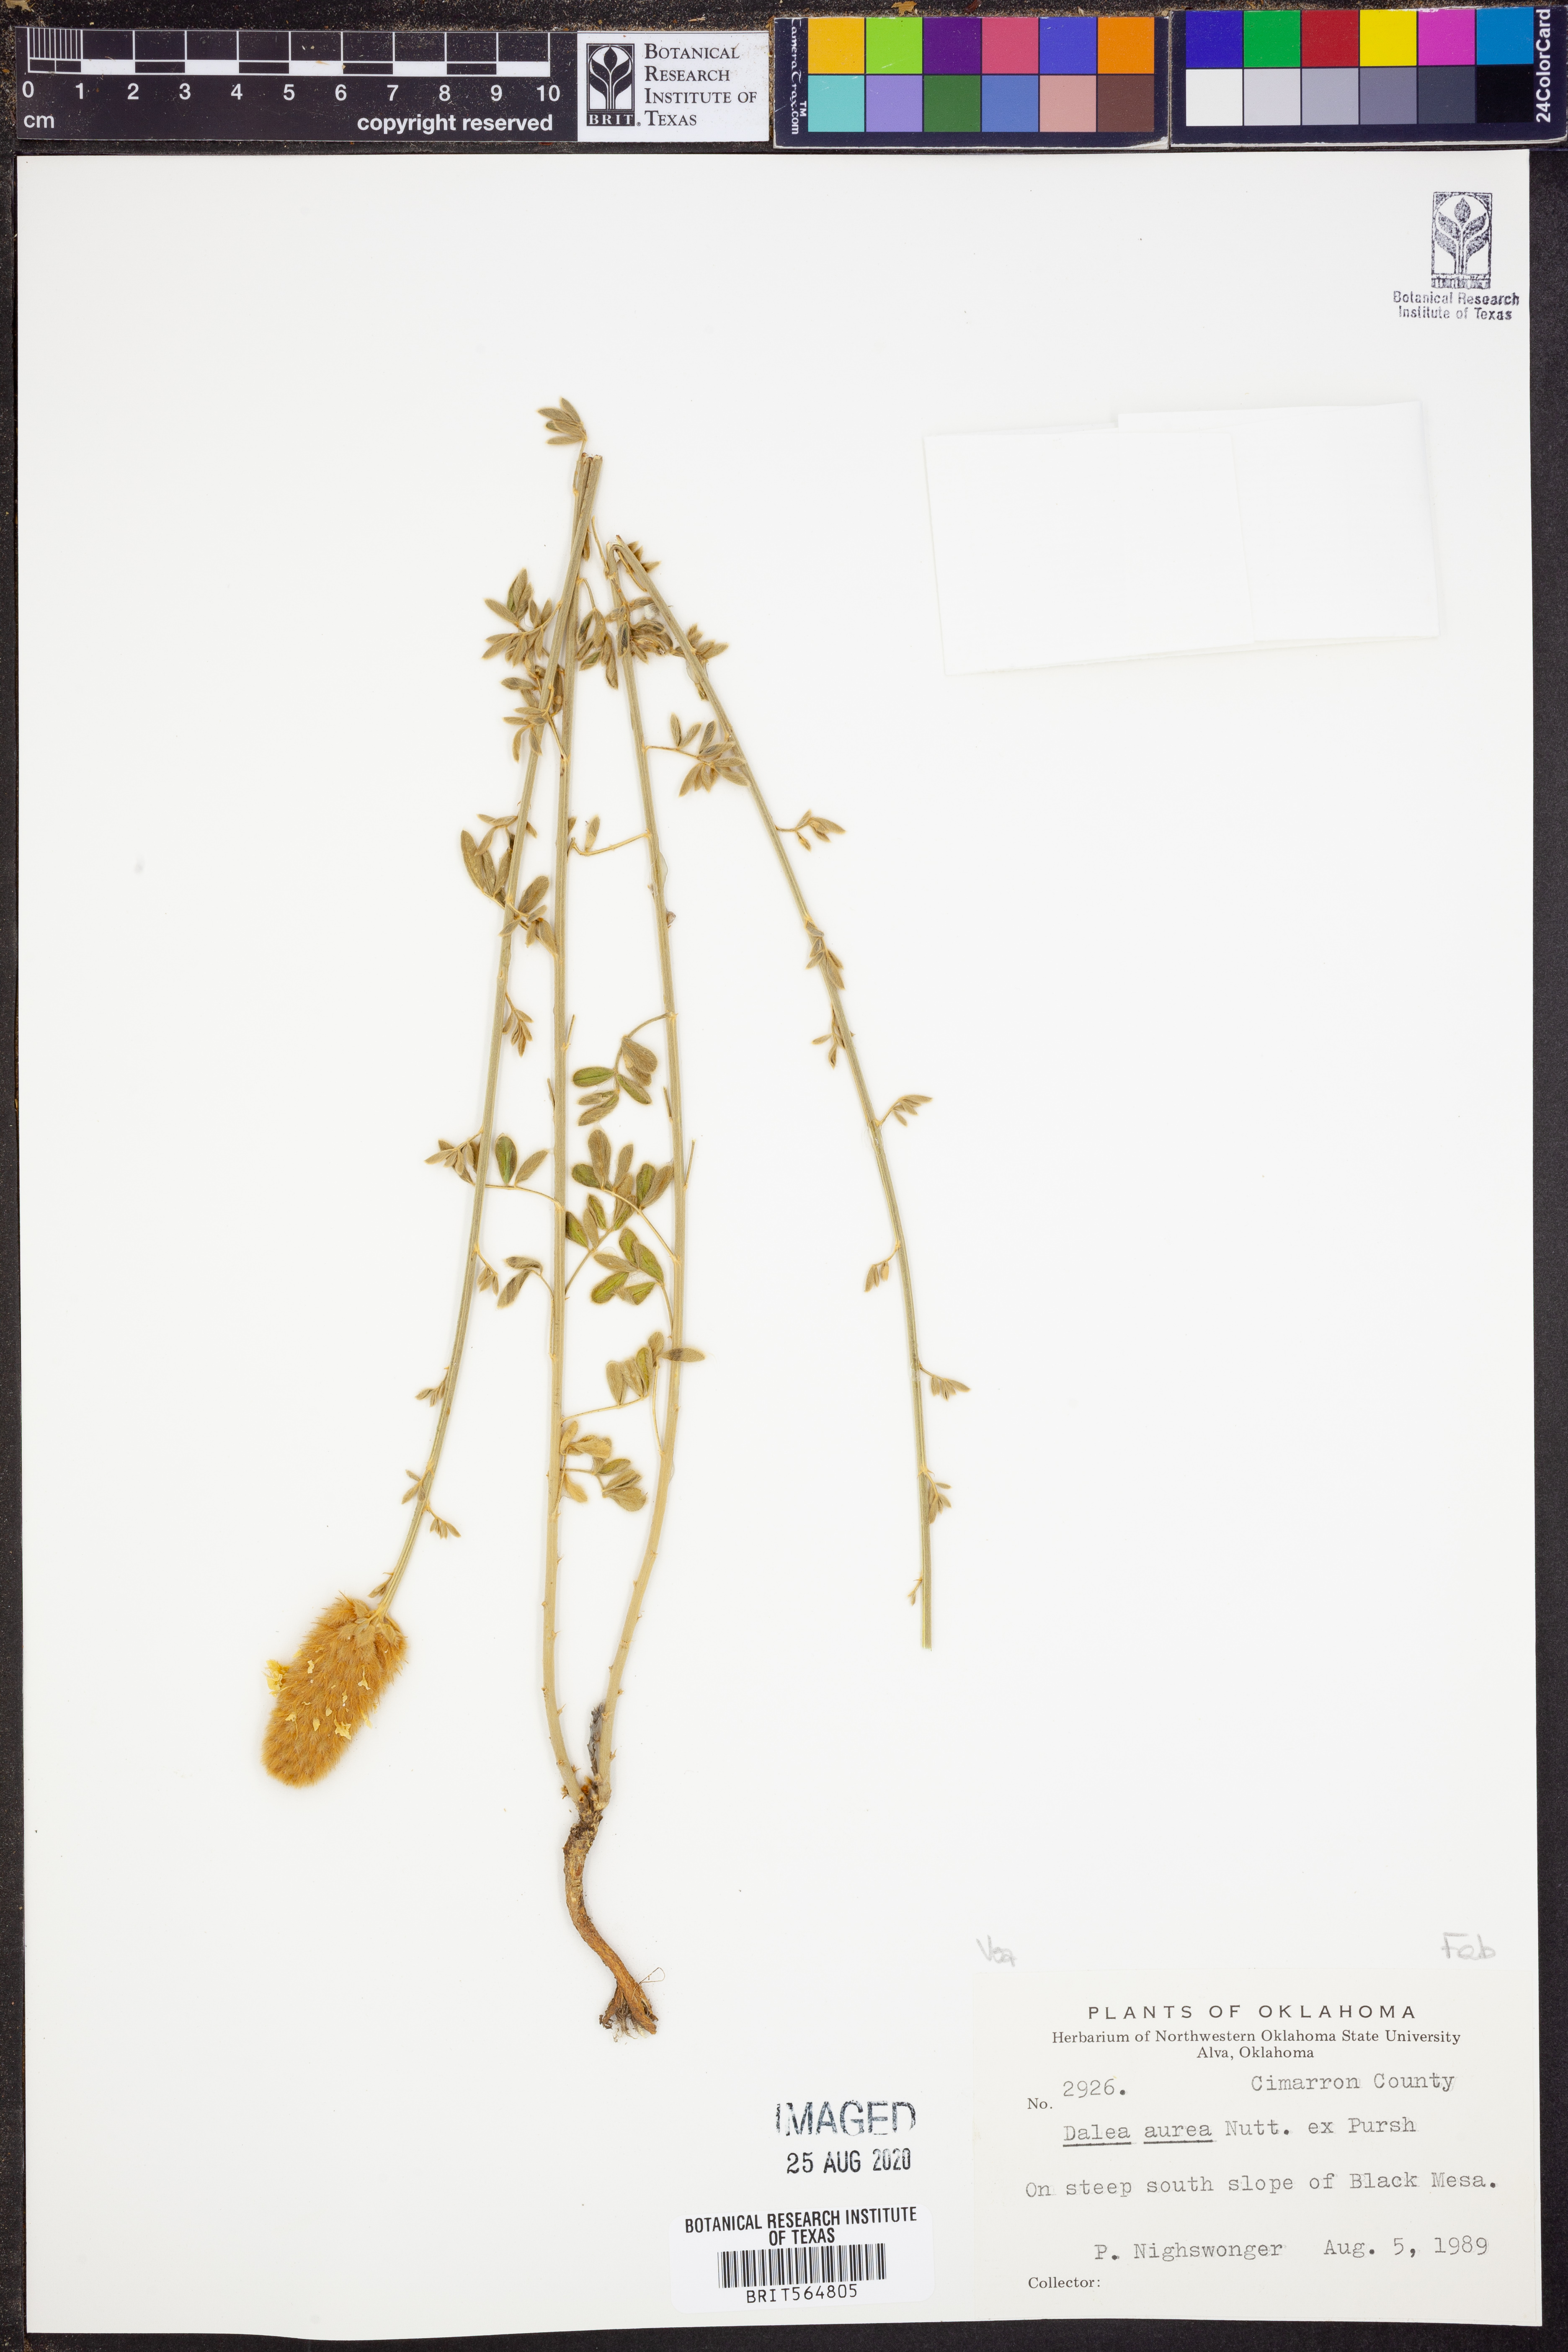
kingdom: Plantae
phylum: Tracheophyta
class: Magnoliopsida
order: Fabales
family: Fabaceae
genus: Dalea
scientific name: Dalea aurea
